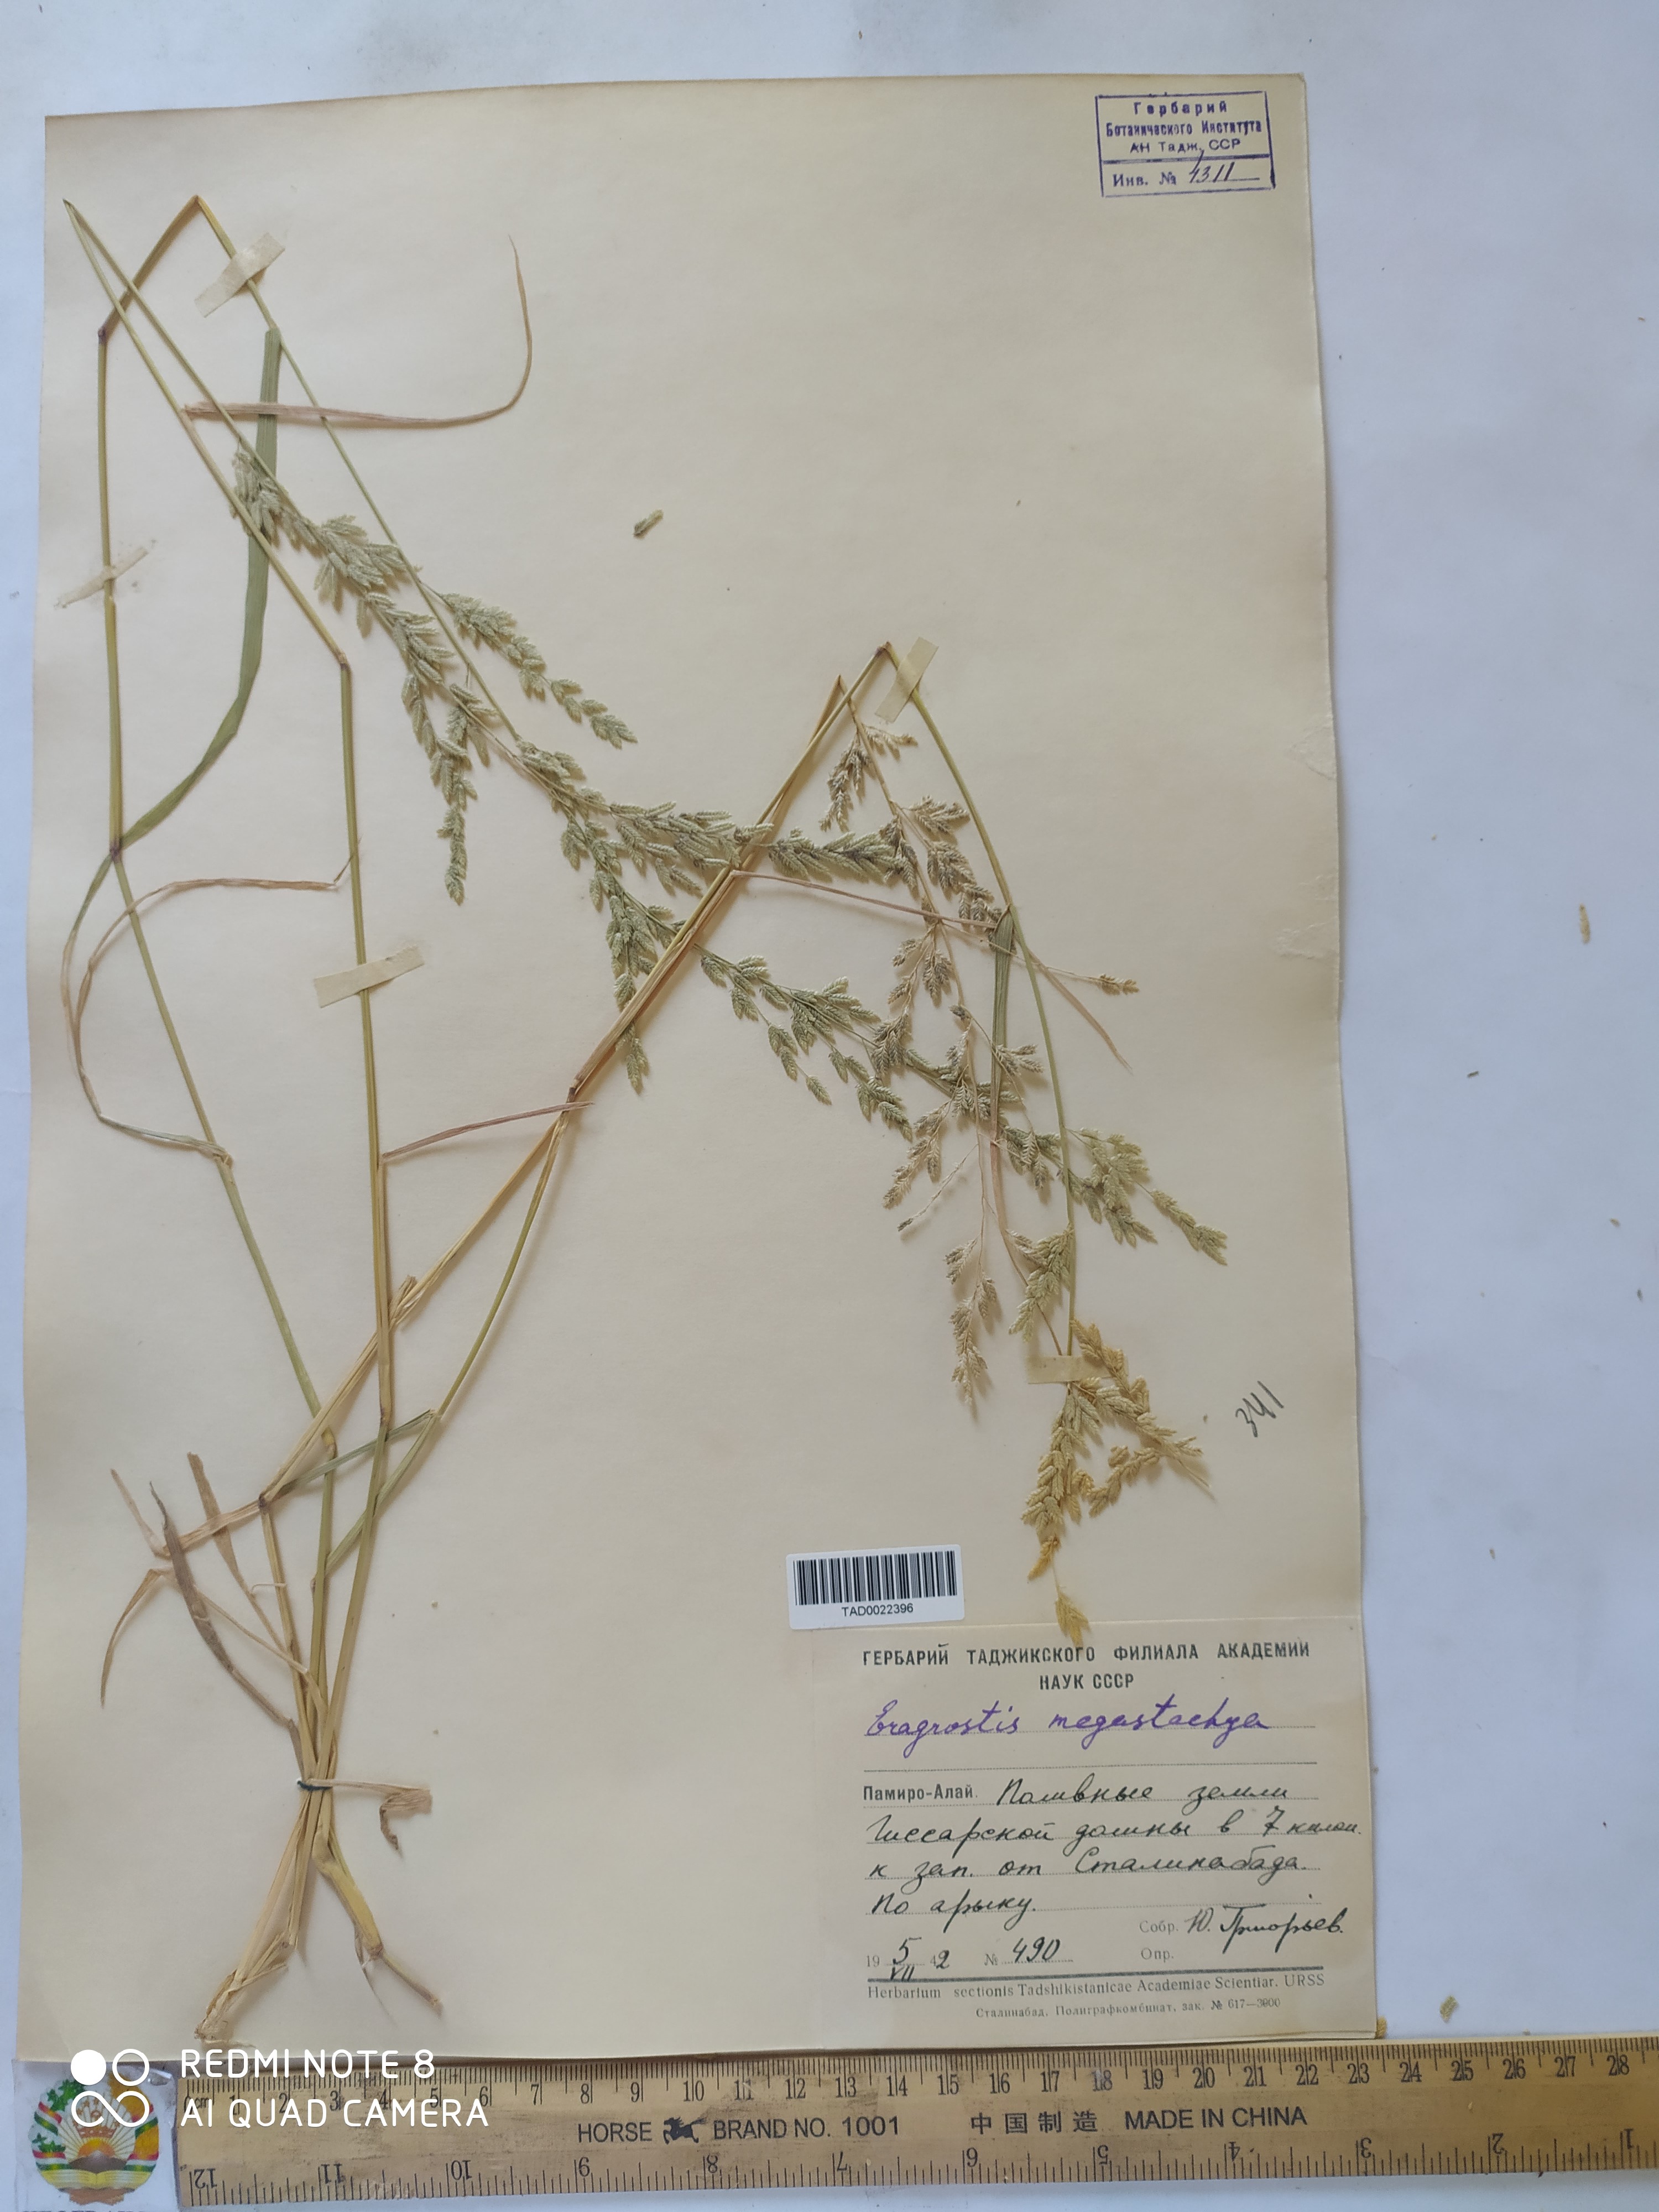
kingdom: Plantae
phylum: Tracheophyta
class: Liliopsida
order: Poales
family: Poaceae
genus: Eragrostis
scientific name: Eragrostis cilianensis
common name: Stinkgrass
